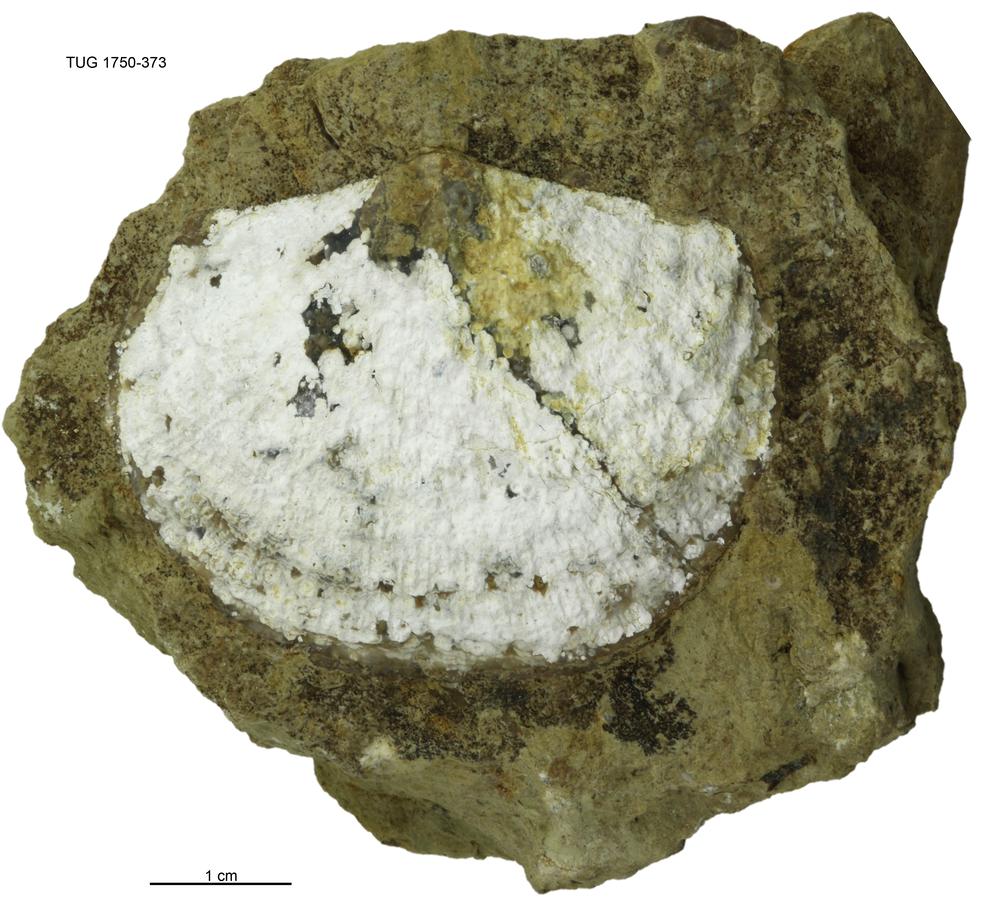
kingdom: Animalia
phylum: Brachiopoda
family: Gonambonitidae
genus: Estlandia
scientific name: Estlandia pyron
